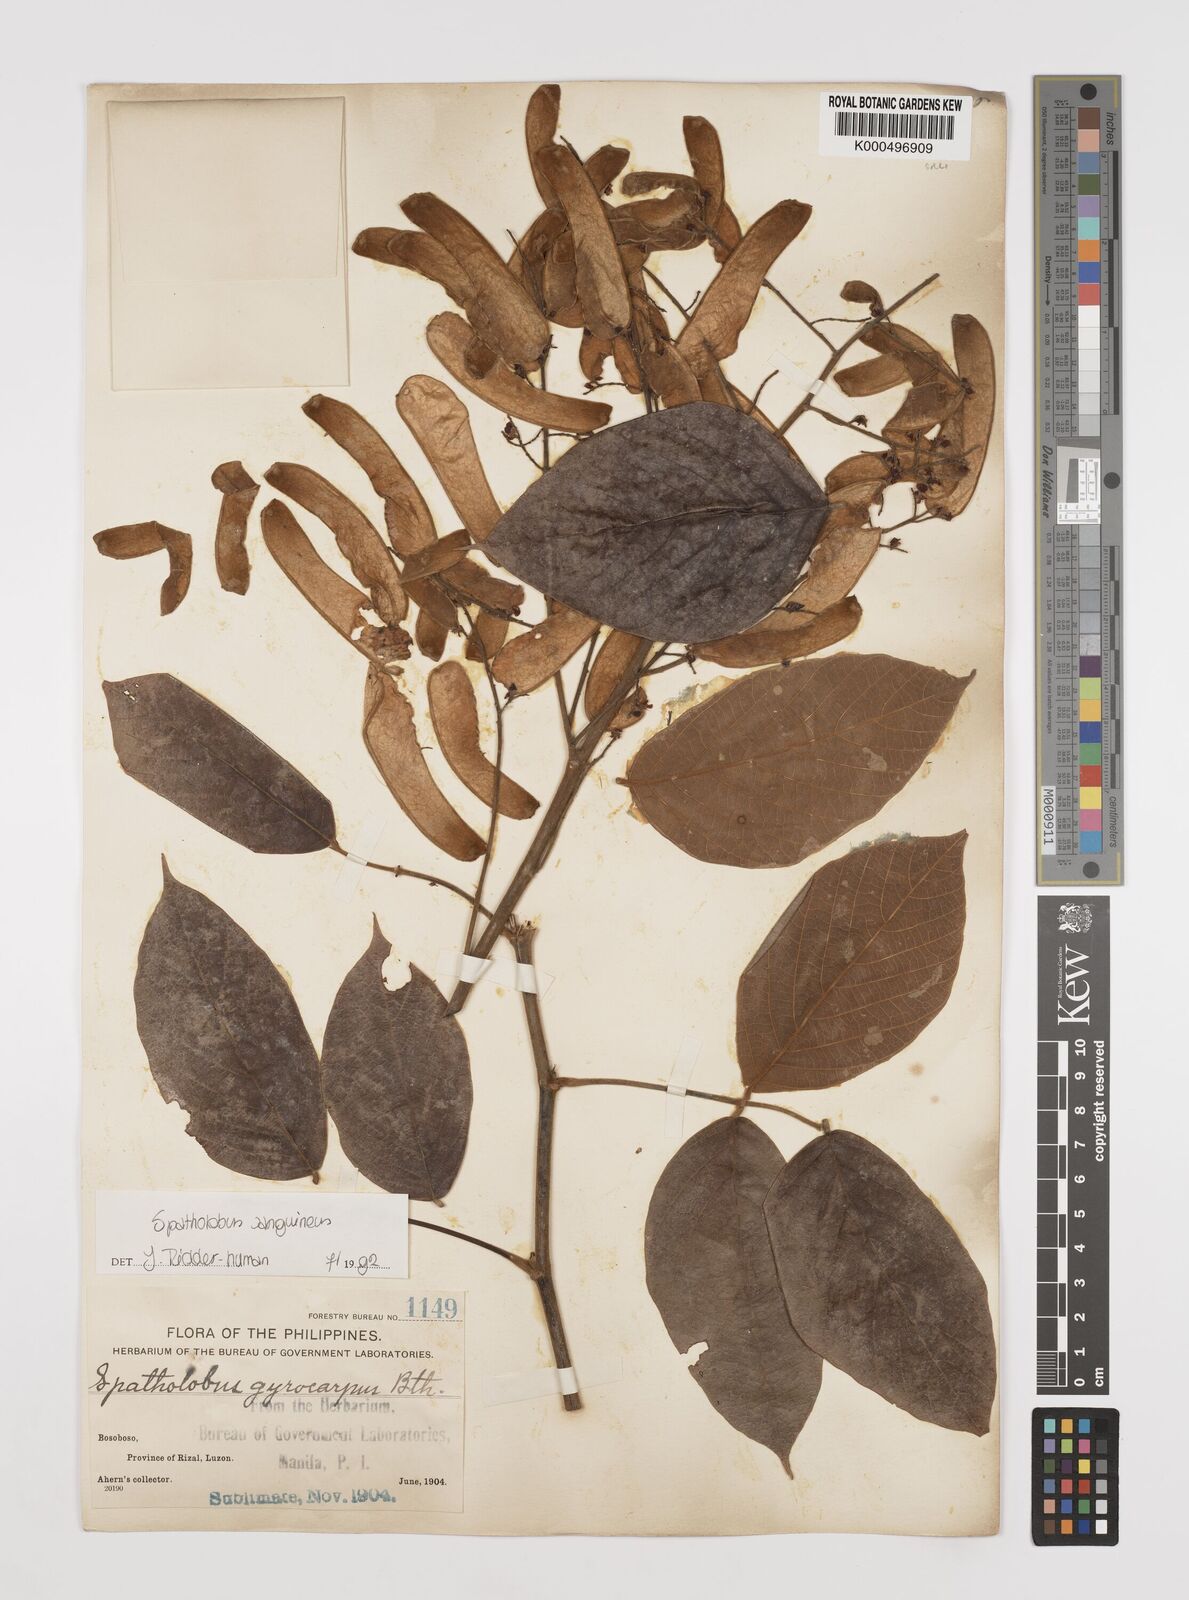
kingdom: Plantae
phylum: Tracheophyta
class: Magnoliopsida
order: Fabales
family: Fabaceae
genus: Spatholobus
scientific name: Spatholobus
